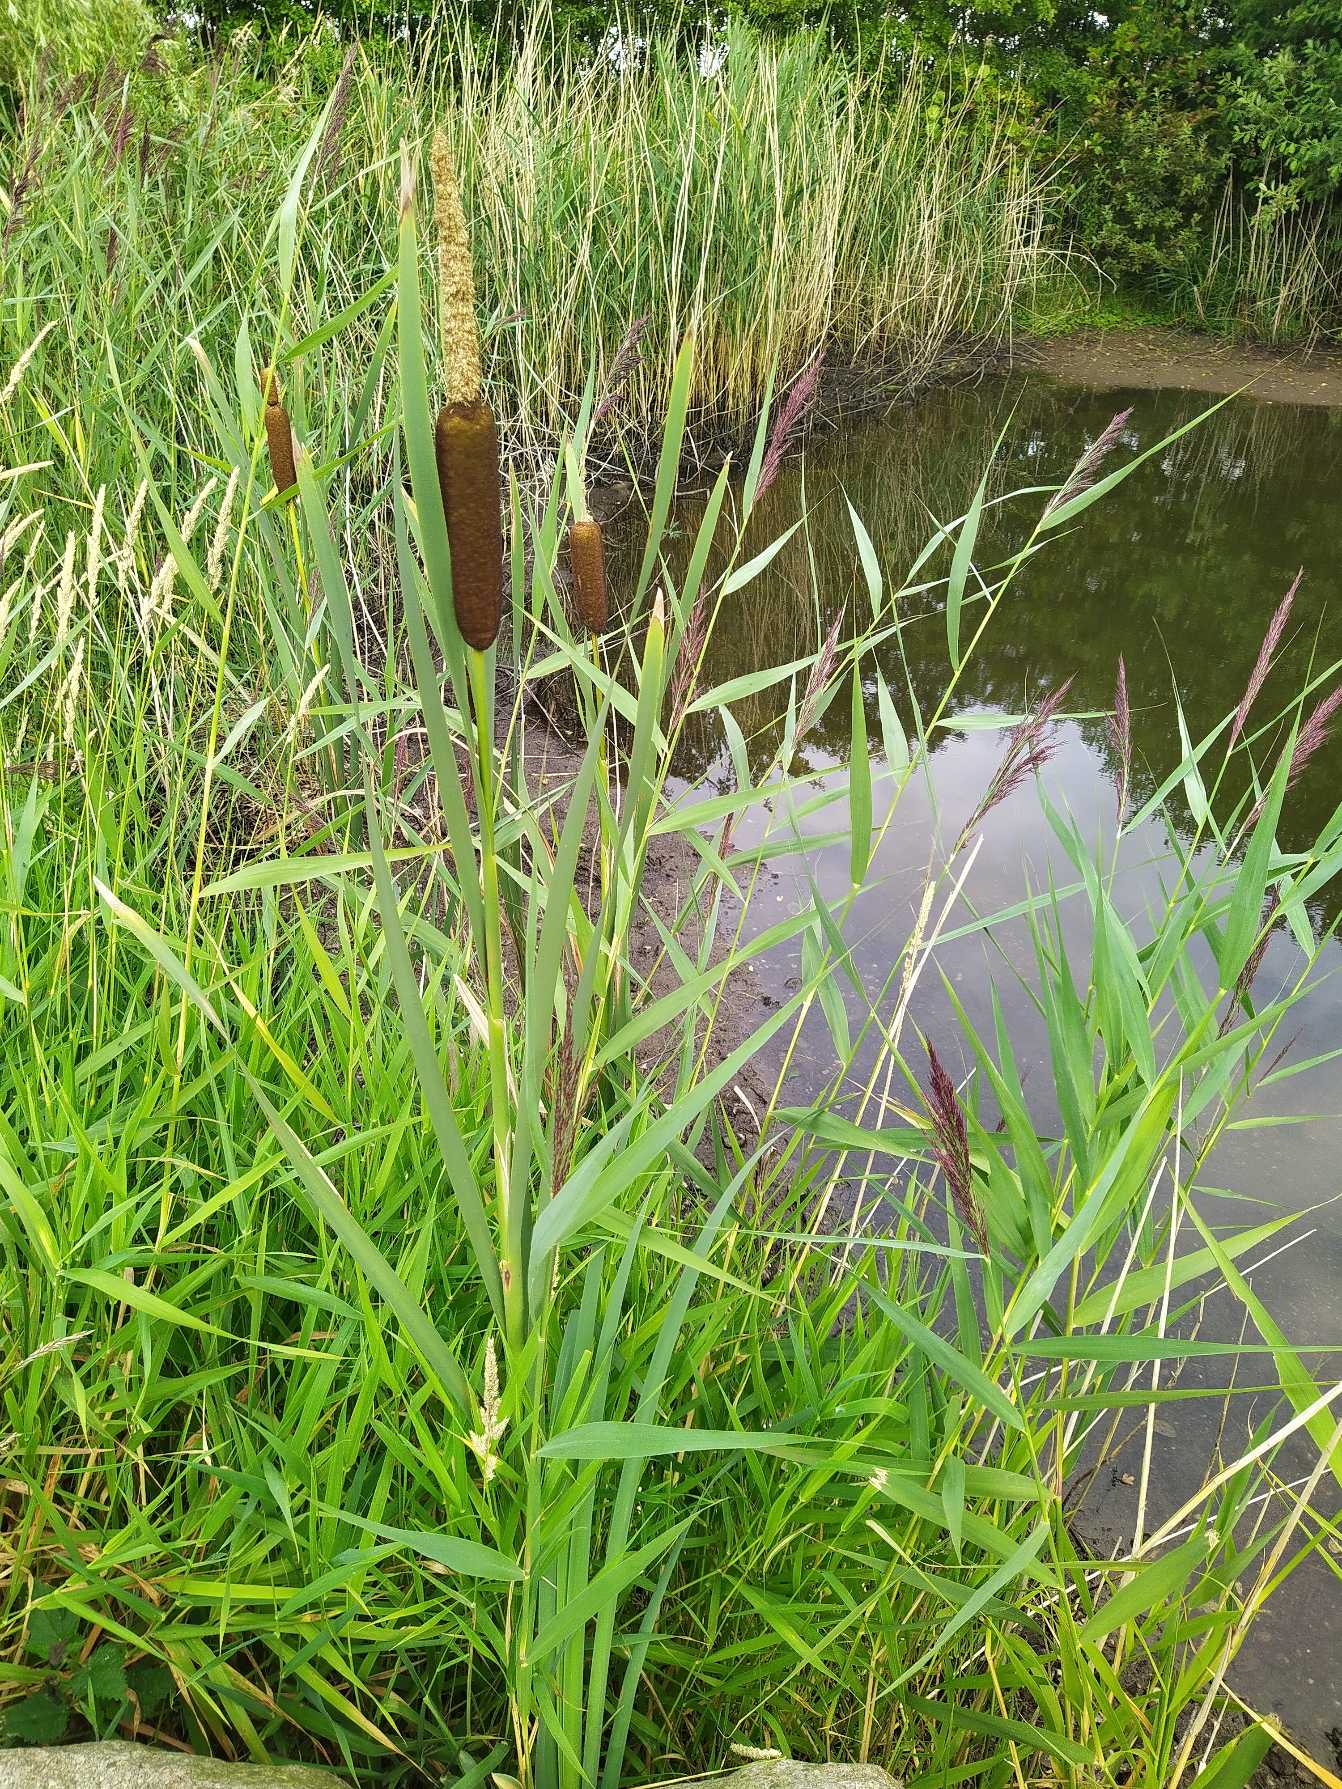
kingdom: Plantae
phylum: Tracheophyta
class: Liliopsida
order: Poales
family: Typhaceae
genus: Typha
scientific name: Typha latifolia
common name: Bredbladet dunhammer
